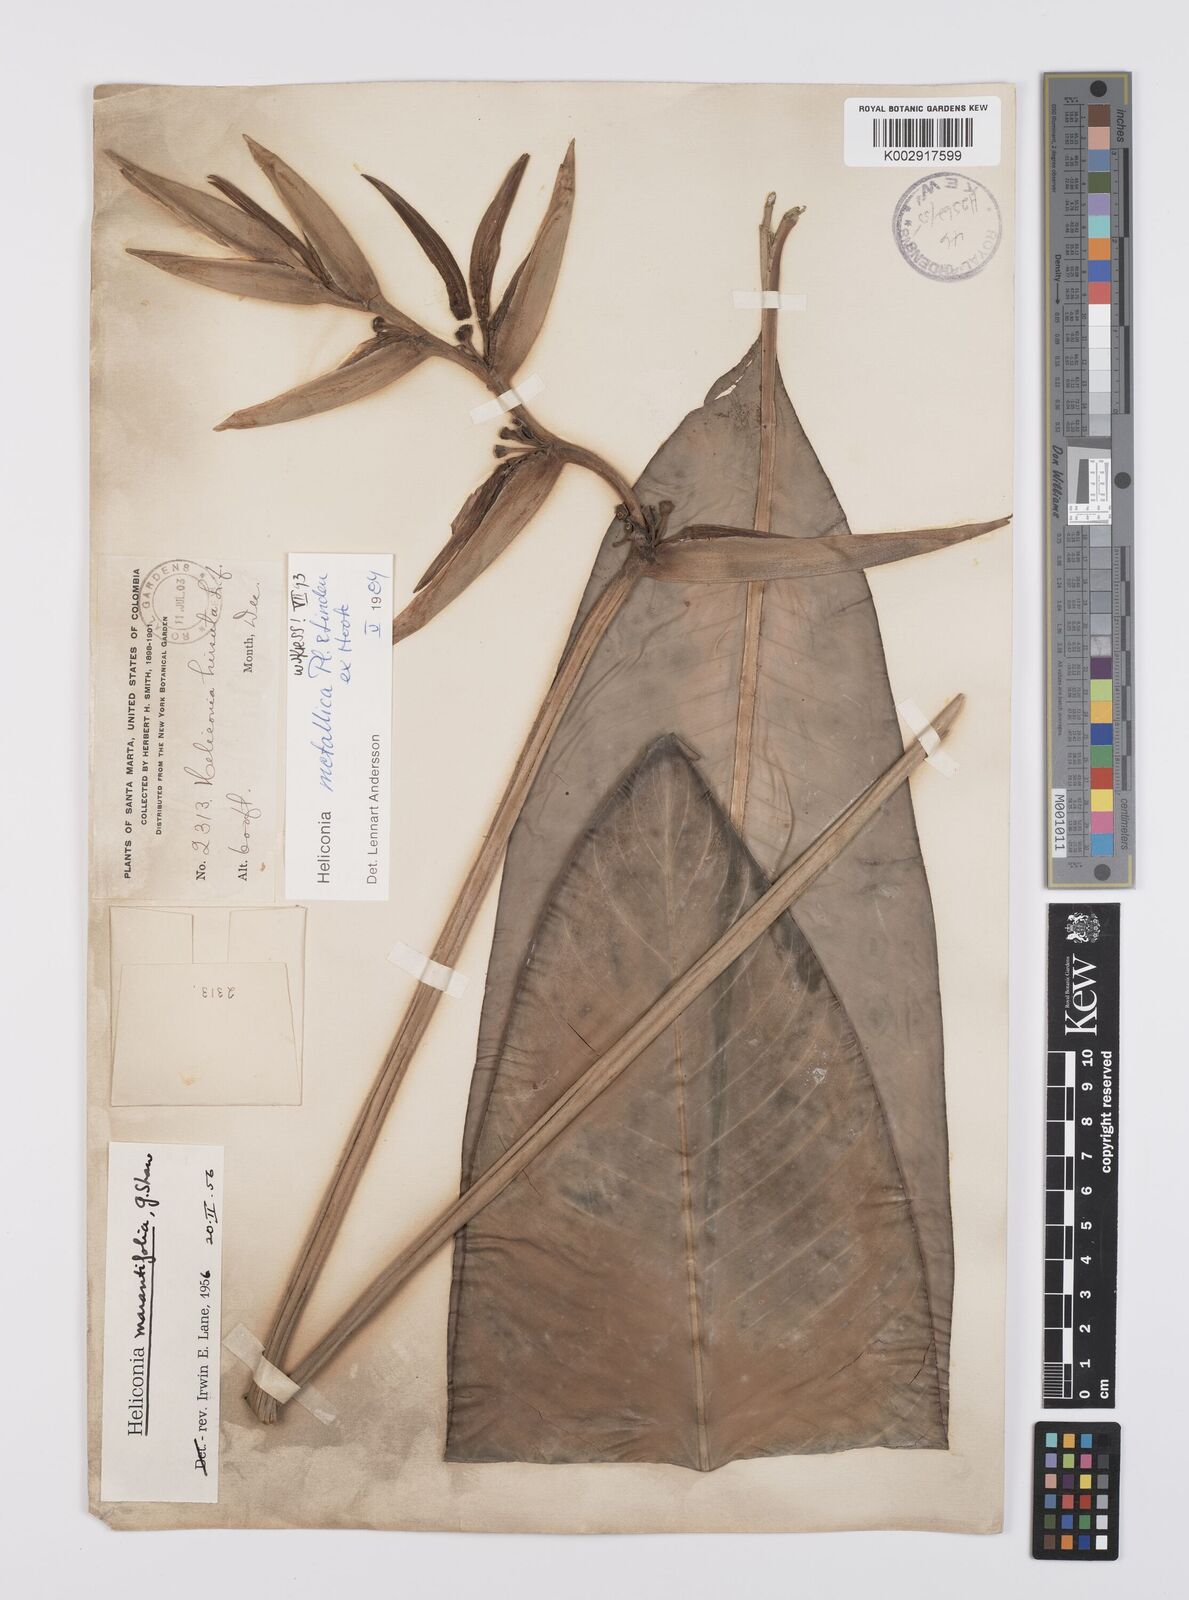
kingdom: Plantae
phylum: Tracheophyta
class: Liliopsida
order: Zingiberales
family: Heliconiaceae
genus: Heliconia
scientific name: Heliconia metallica
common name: Shining bird of paradise
